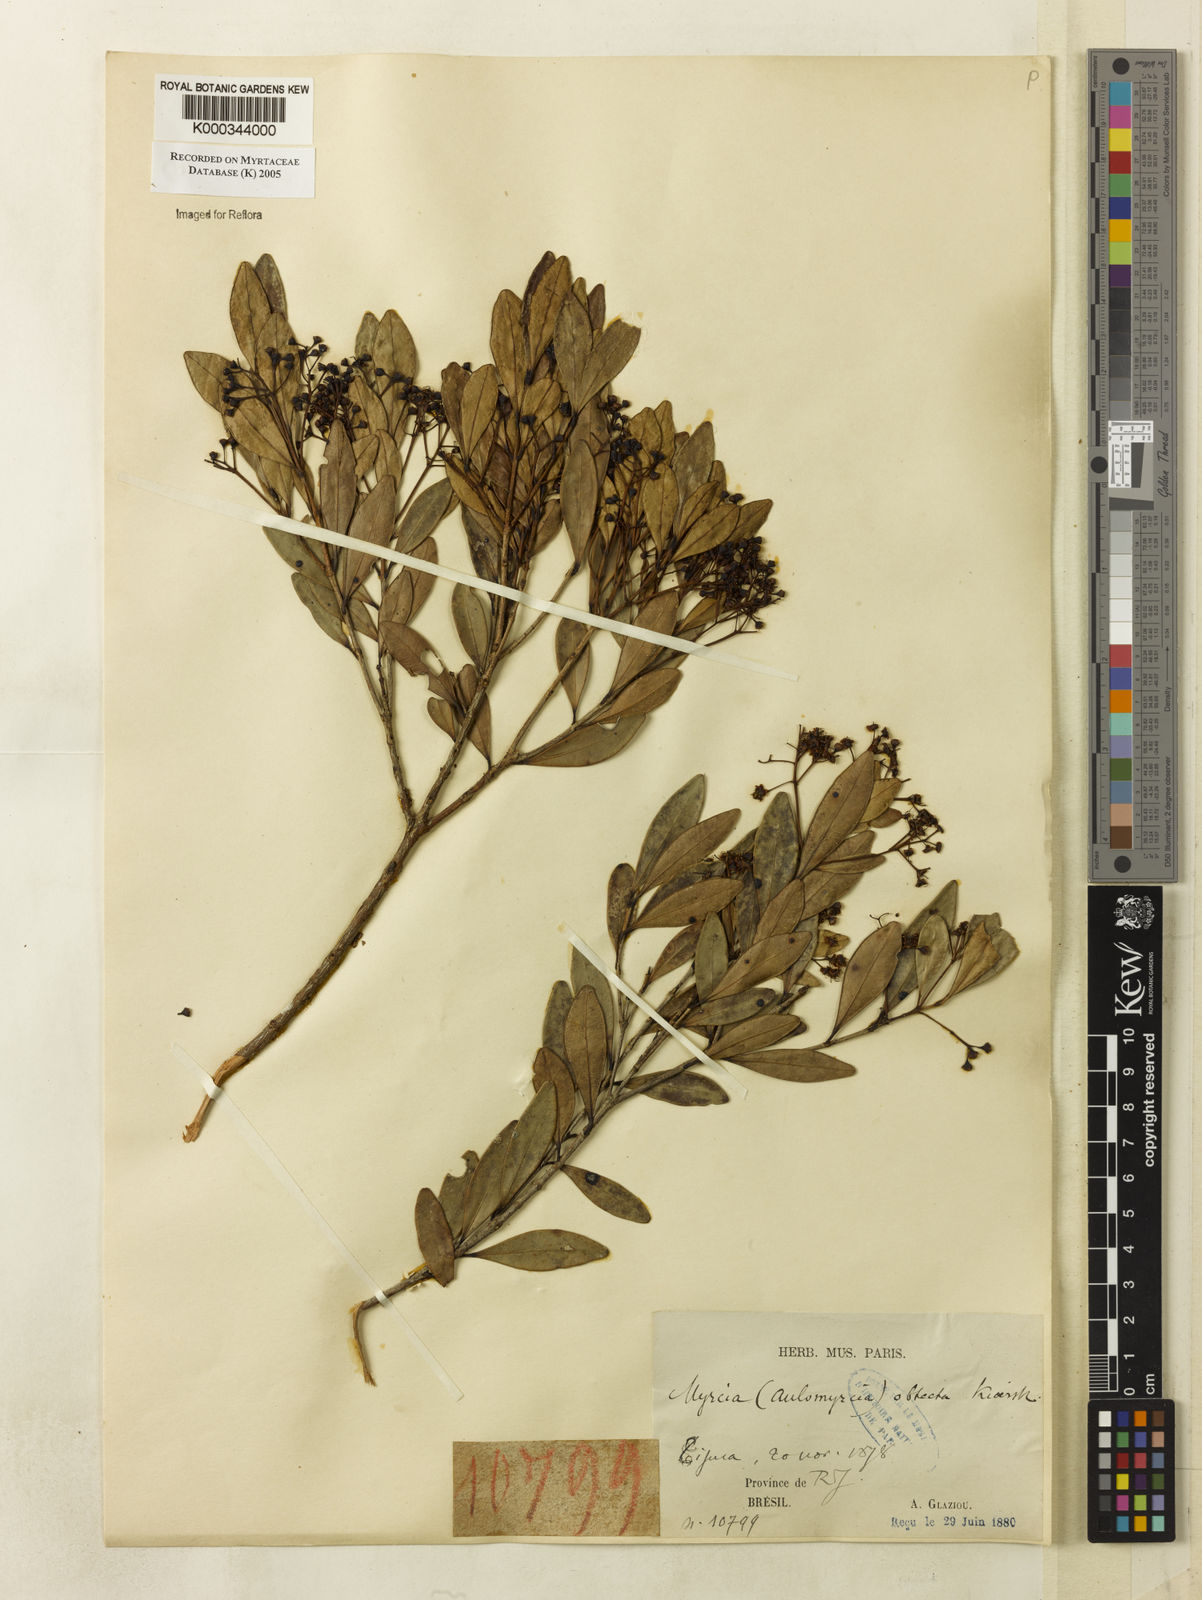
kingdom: Plantae
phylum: Tracheophyta
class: Magnoliopsida
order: Myrtales
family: Myrtaceae
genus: Myrcia
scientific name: Myrcia guianensis
